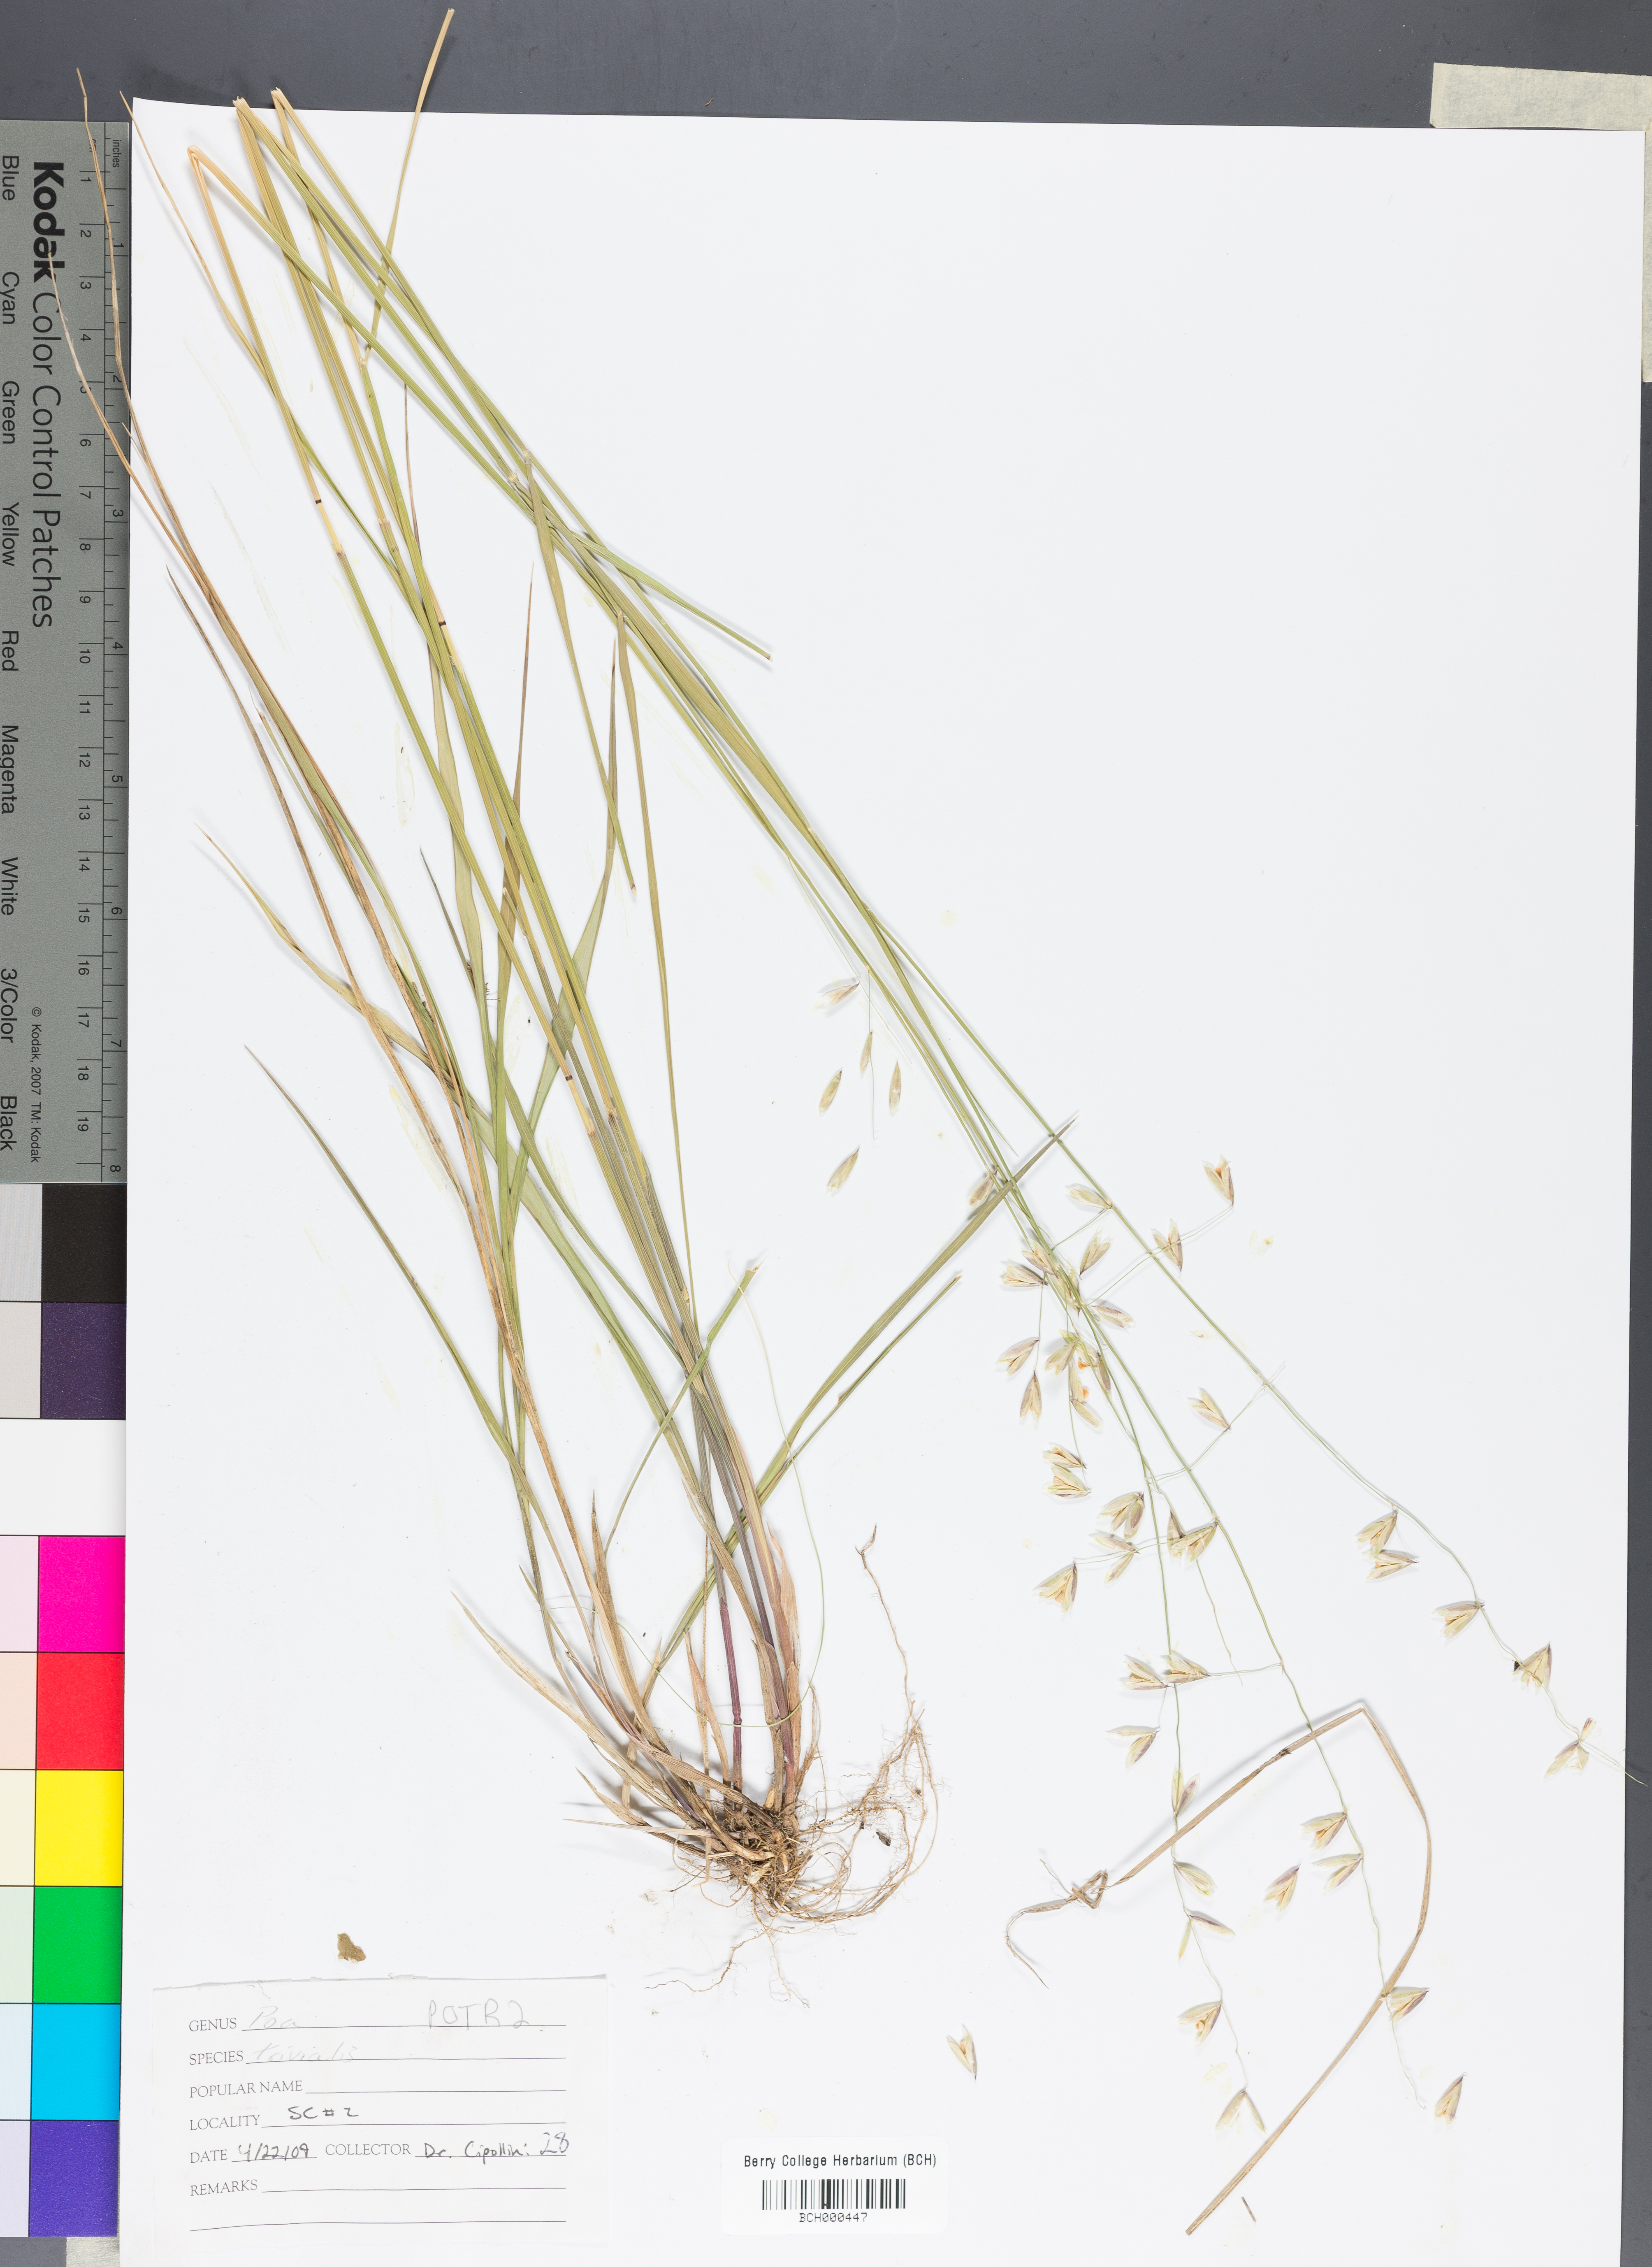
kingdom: Plantae
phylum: Tracheophyta
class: Liliopsida
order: Poales
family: Poaceae
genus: Poa
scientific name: Poa trivialis
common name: Rough bluegrass
